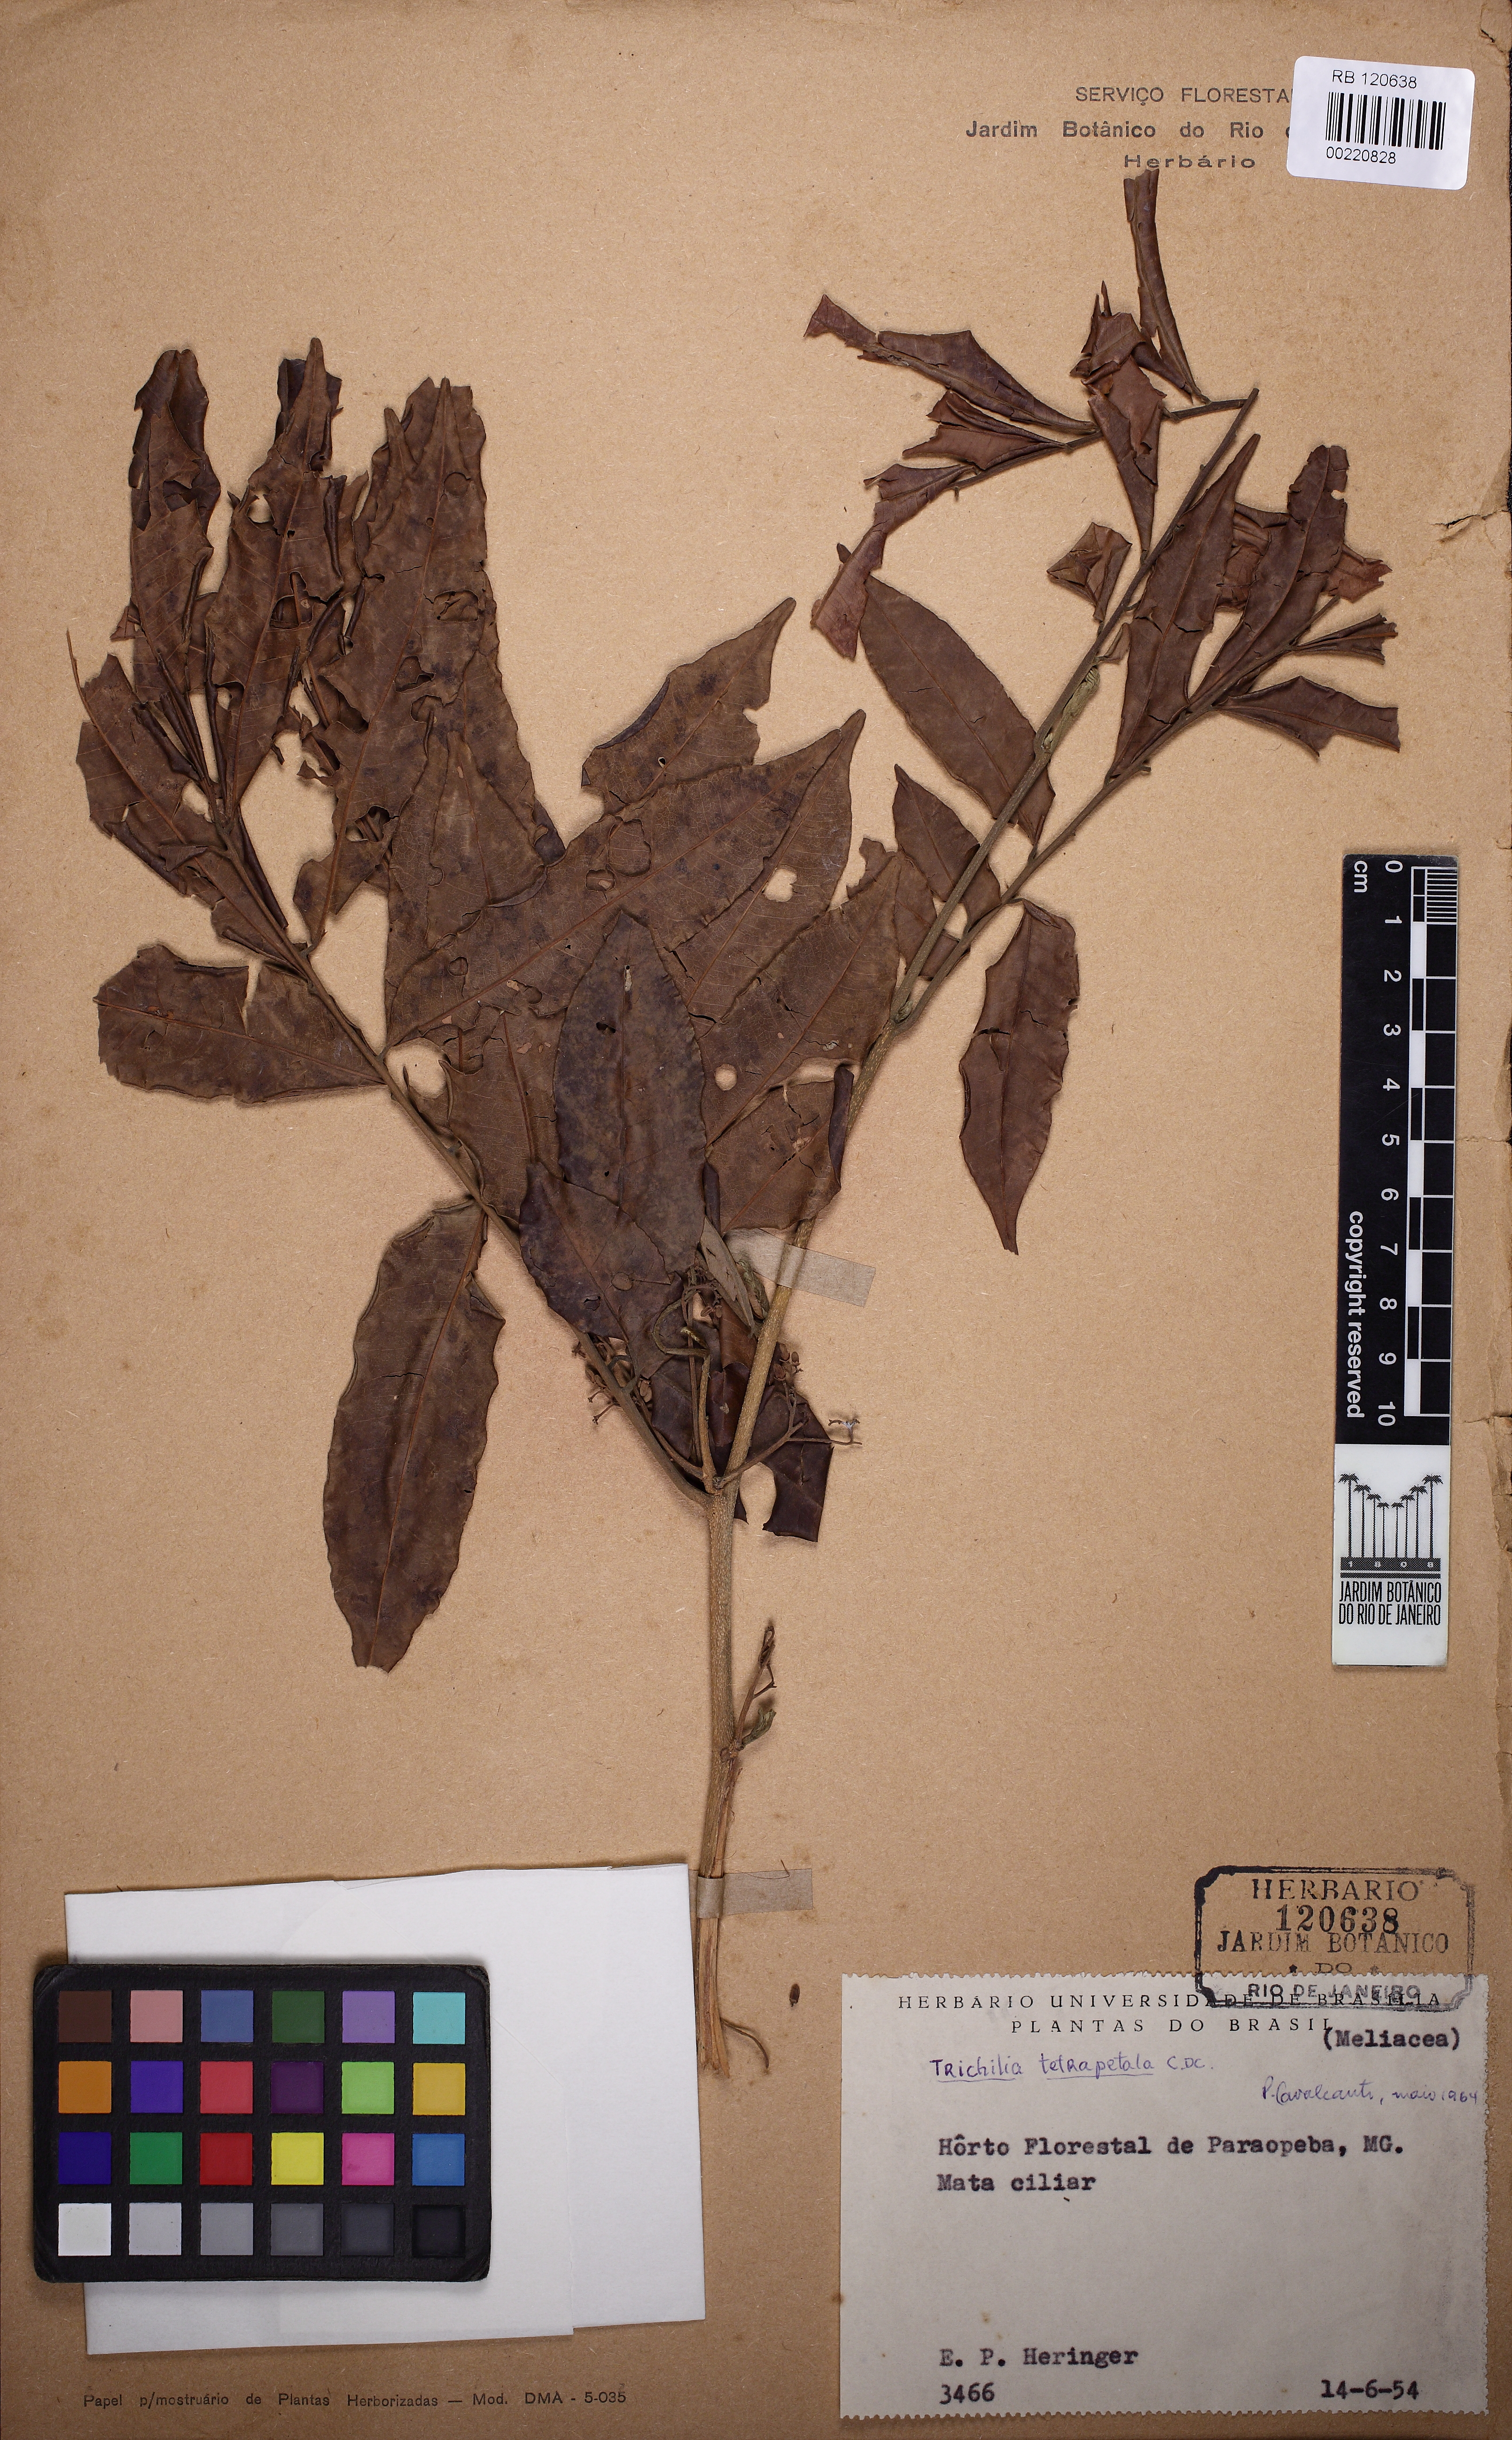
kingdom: Plantae
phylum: Tracheophyta
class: Magnoliopsida
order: Sapindales
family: Meliaceae
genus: Trichilia
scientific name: Trichilia tetrapetala
